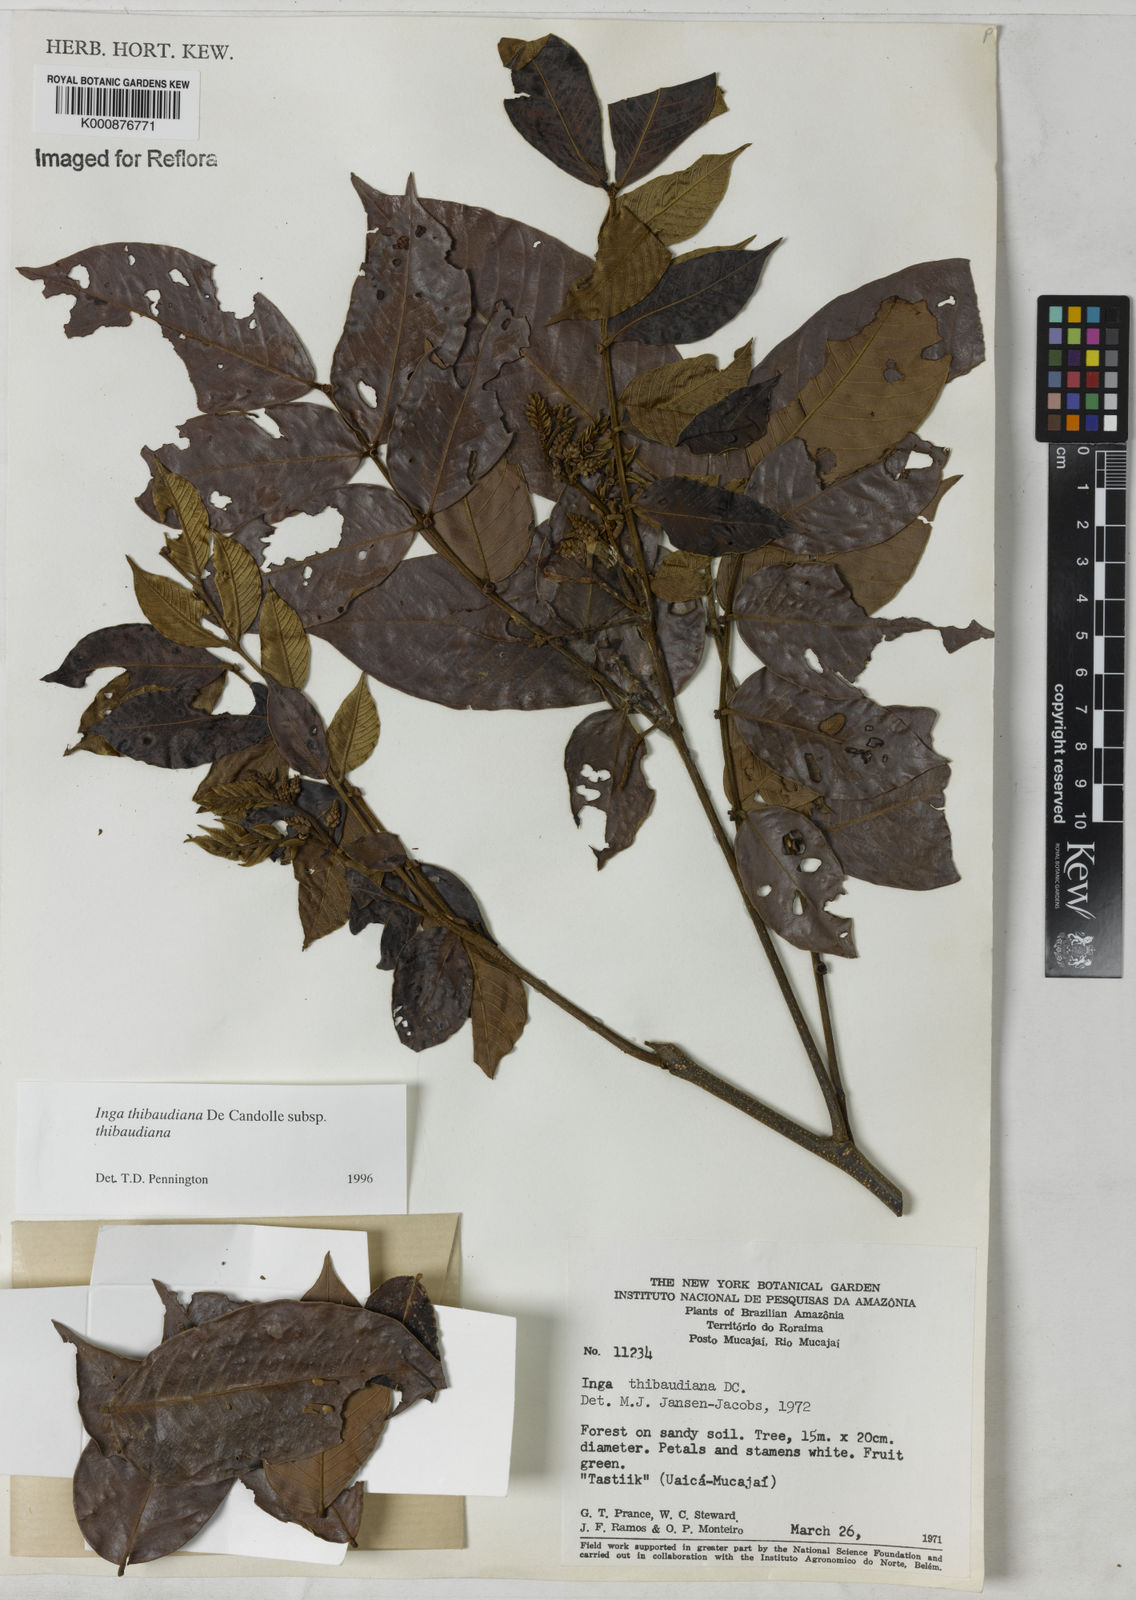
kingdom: Plantae
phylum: Tracheophyta
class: Magnoliopsida
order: Fabales
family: Fabaceae
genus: Inga
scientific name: Inga thibaudiana
